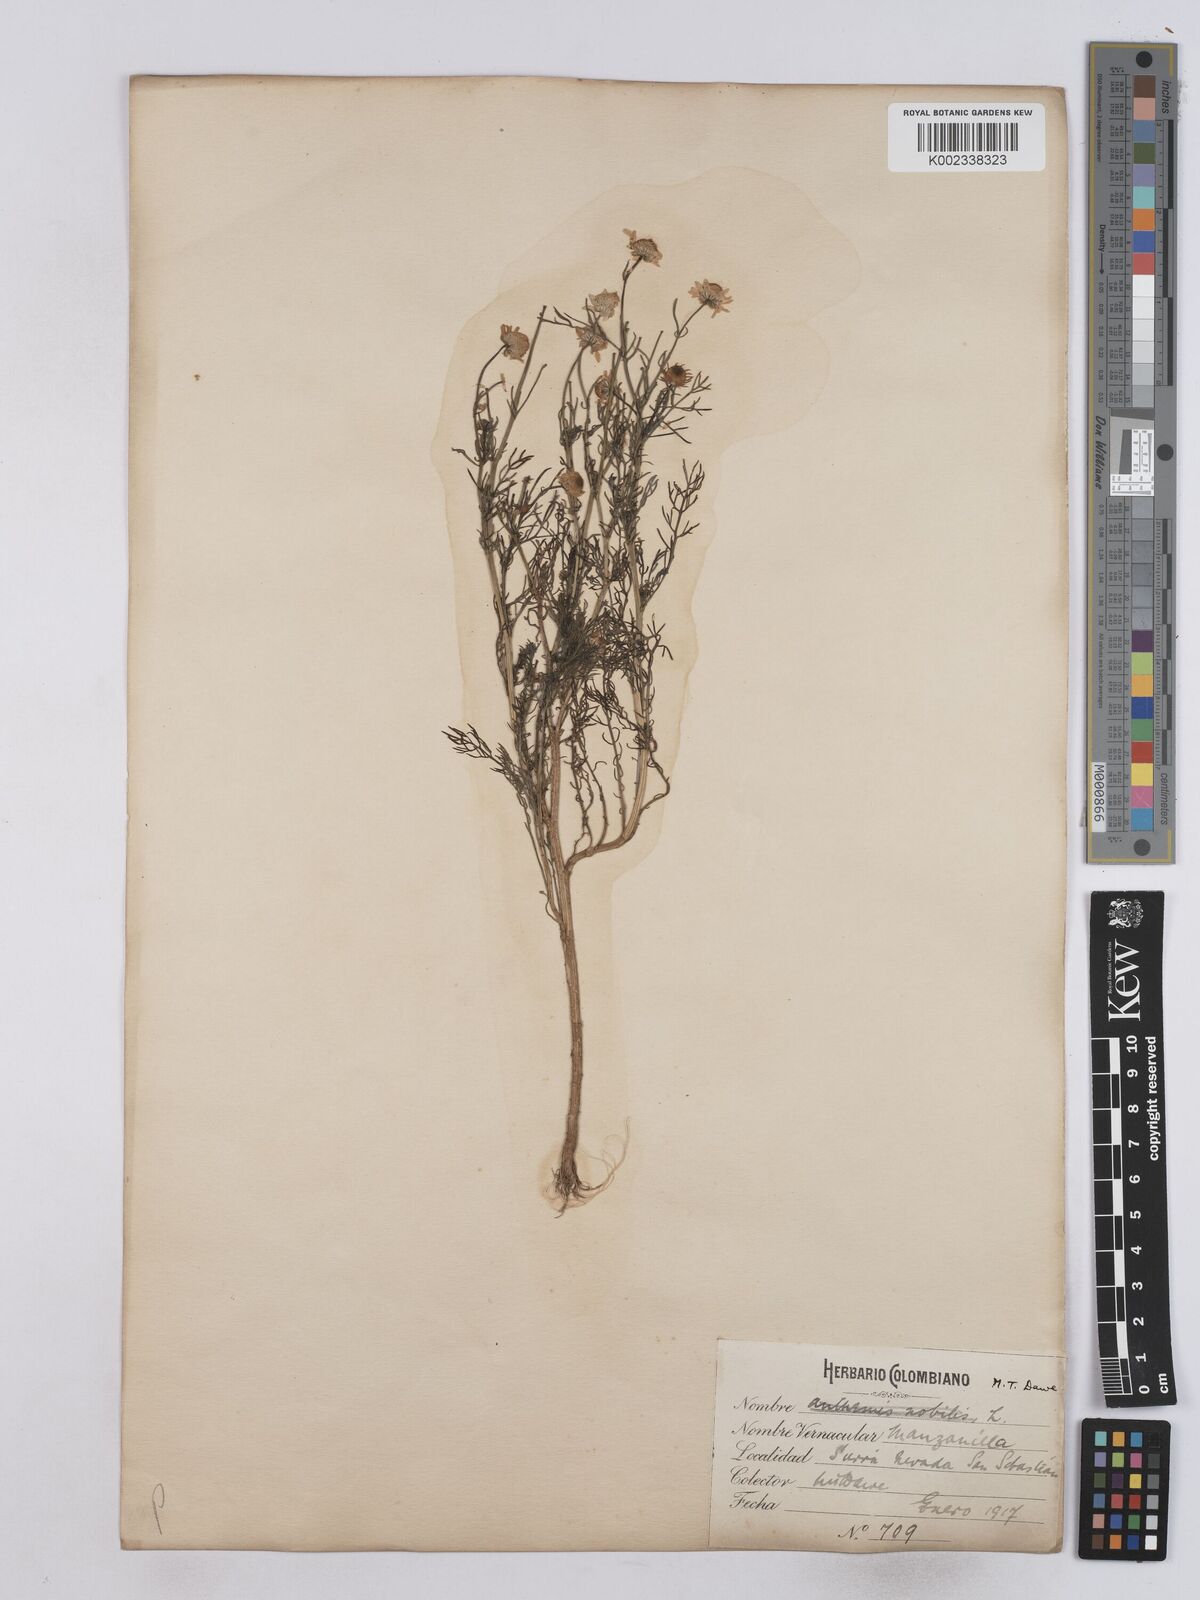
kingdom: Plantae
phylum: Tracheophyta
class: Magnoliopsida
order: Asterales
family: Asteraceae
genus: Matricaria
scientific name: Matricaria chamomilla
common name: Scented mayweed
